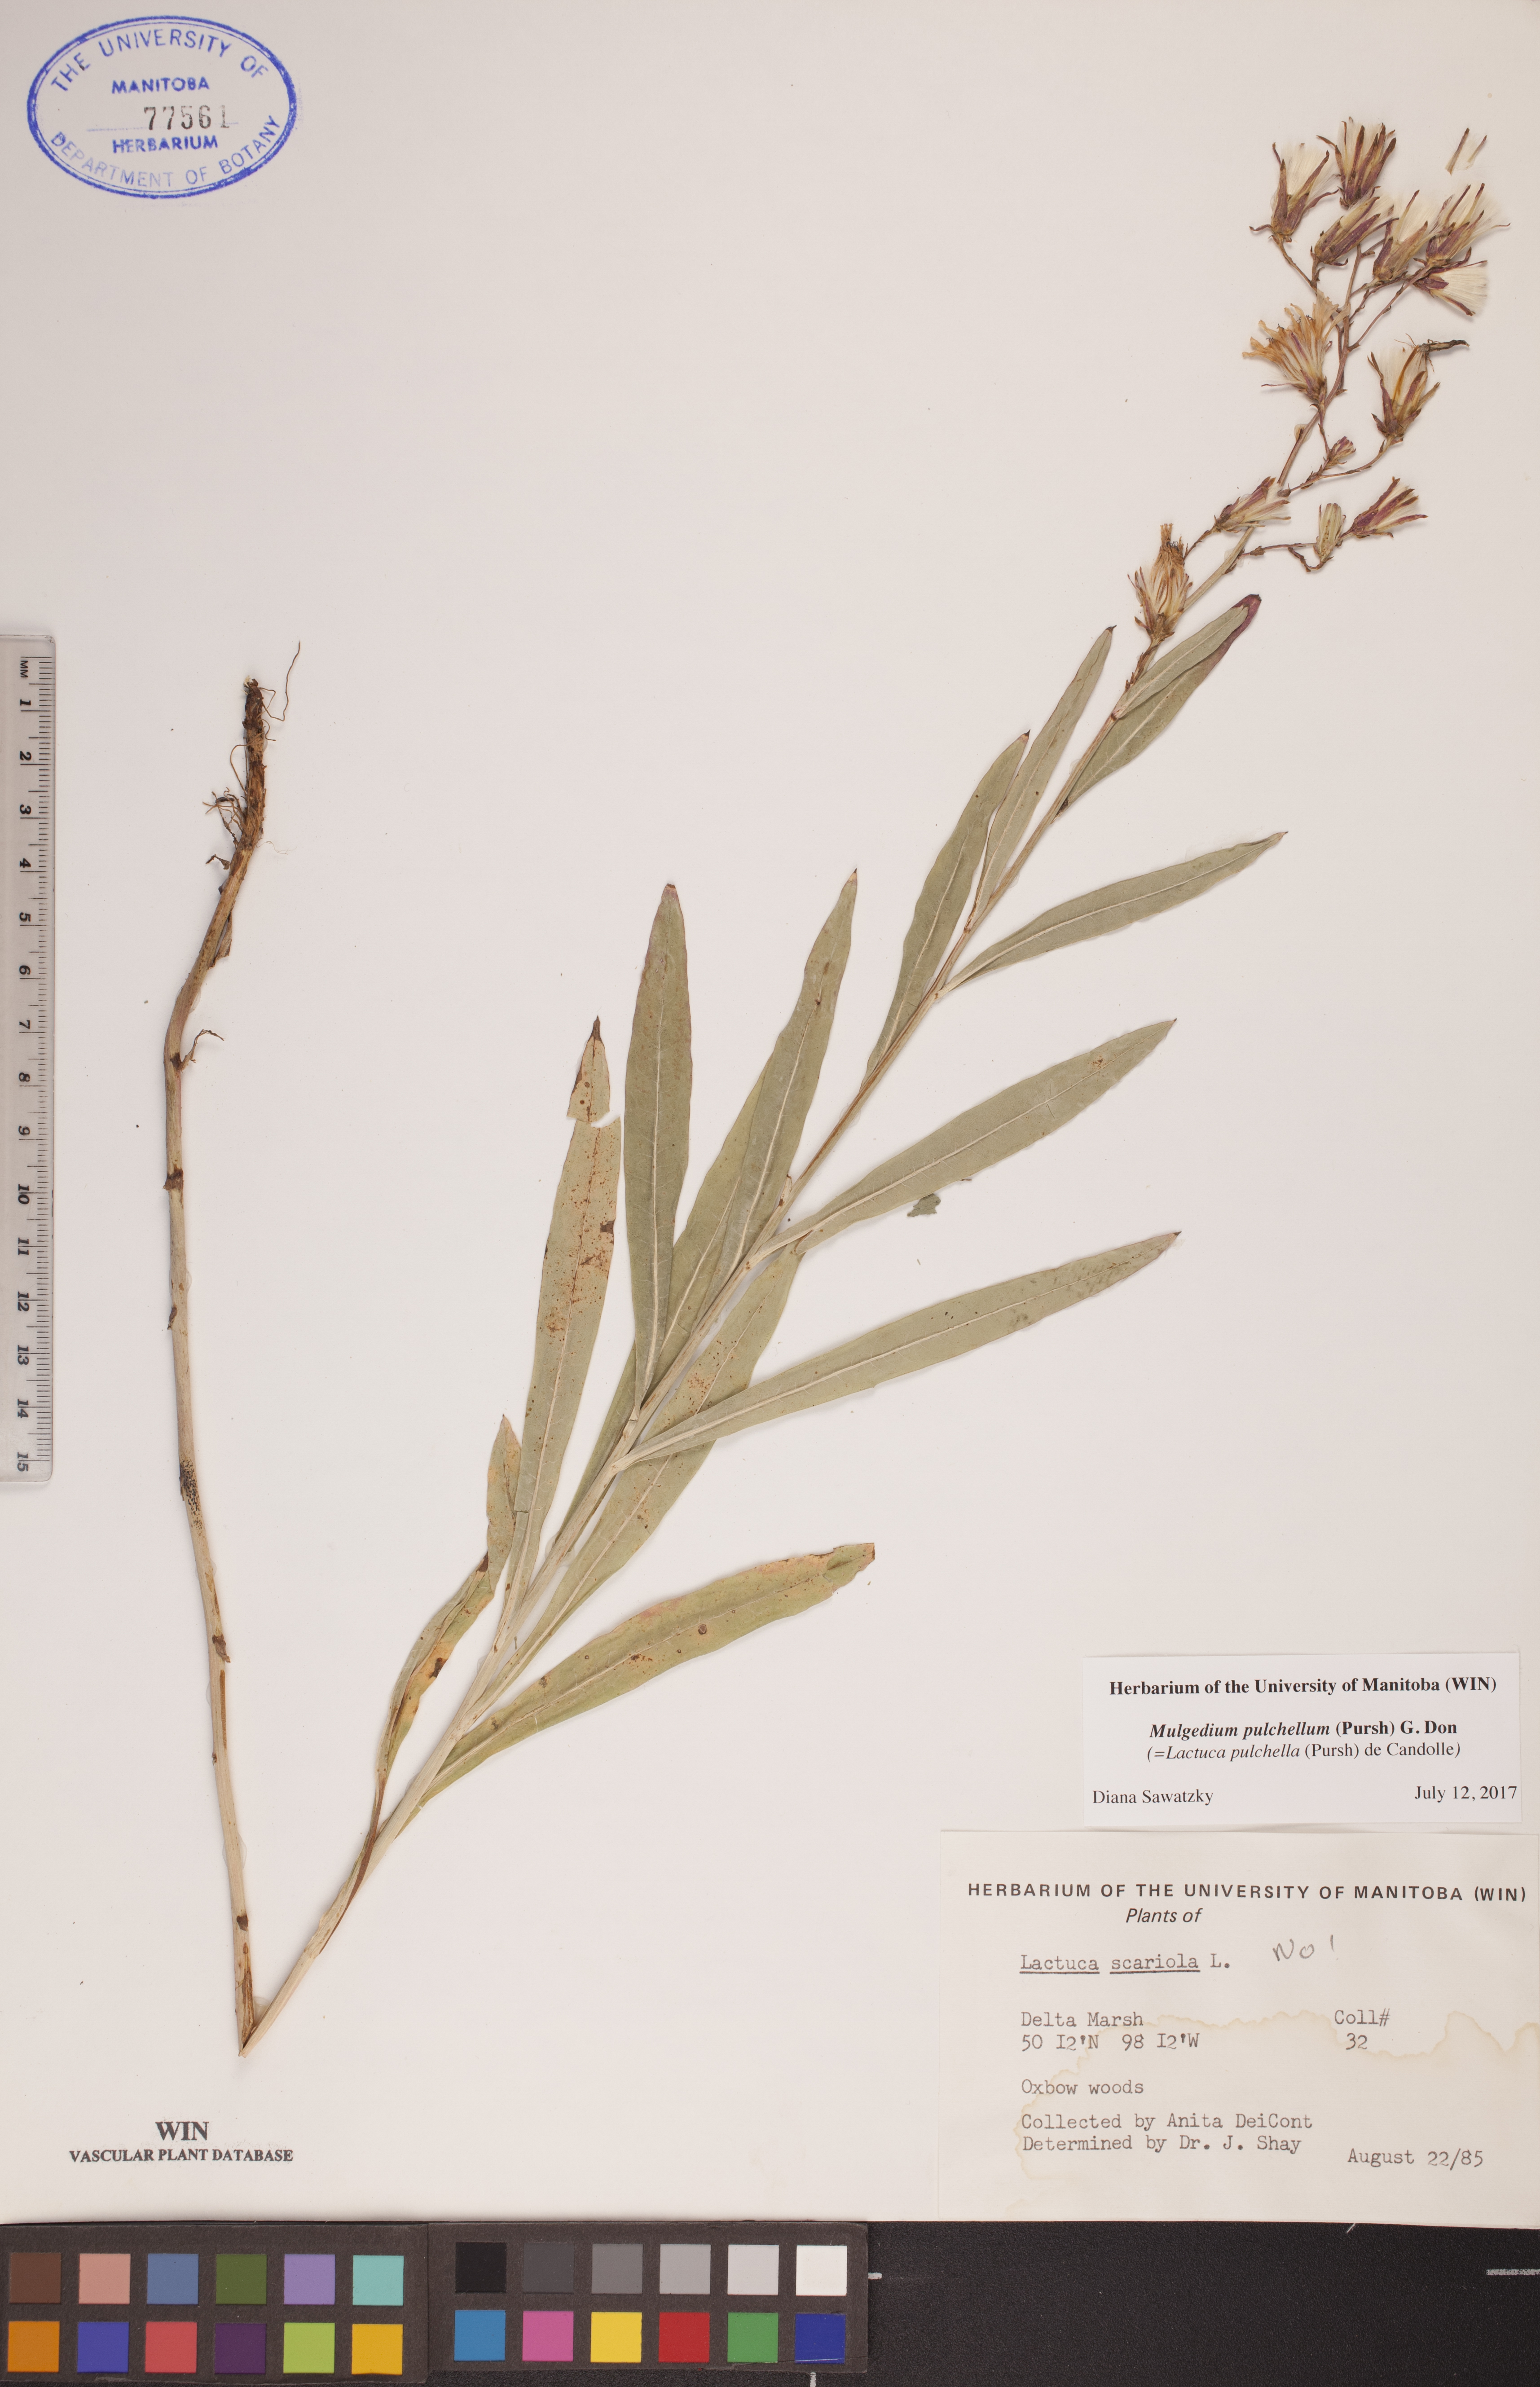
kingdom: Plantae
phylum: Tracheophyta
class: Magnoliopsida
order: Asterales
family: Asteraceae
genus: Lactuca
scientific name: Lactuca pulchella
